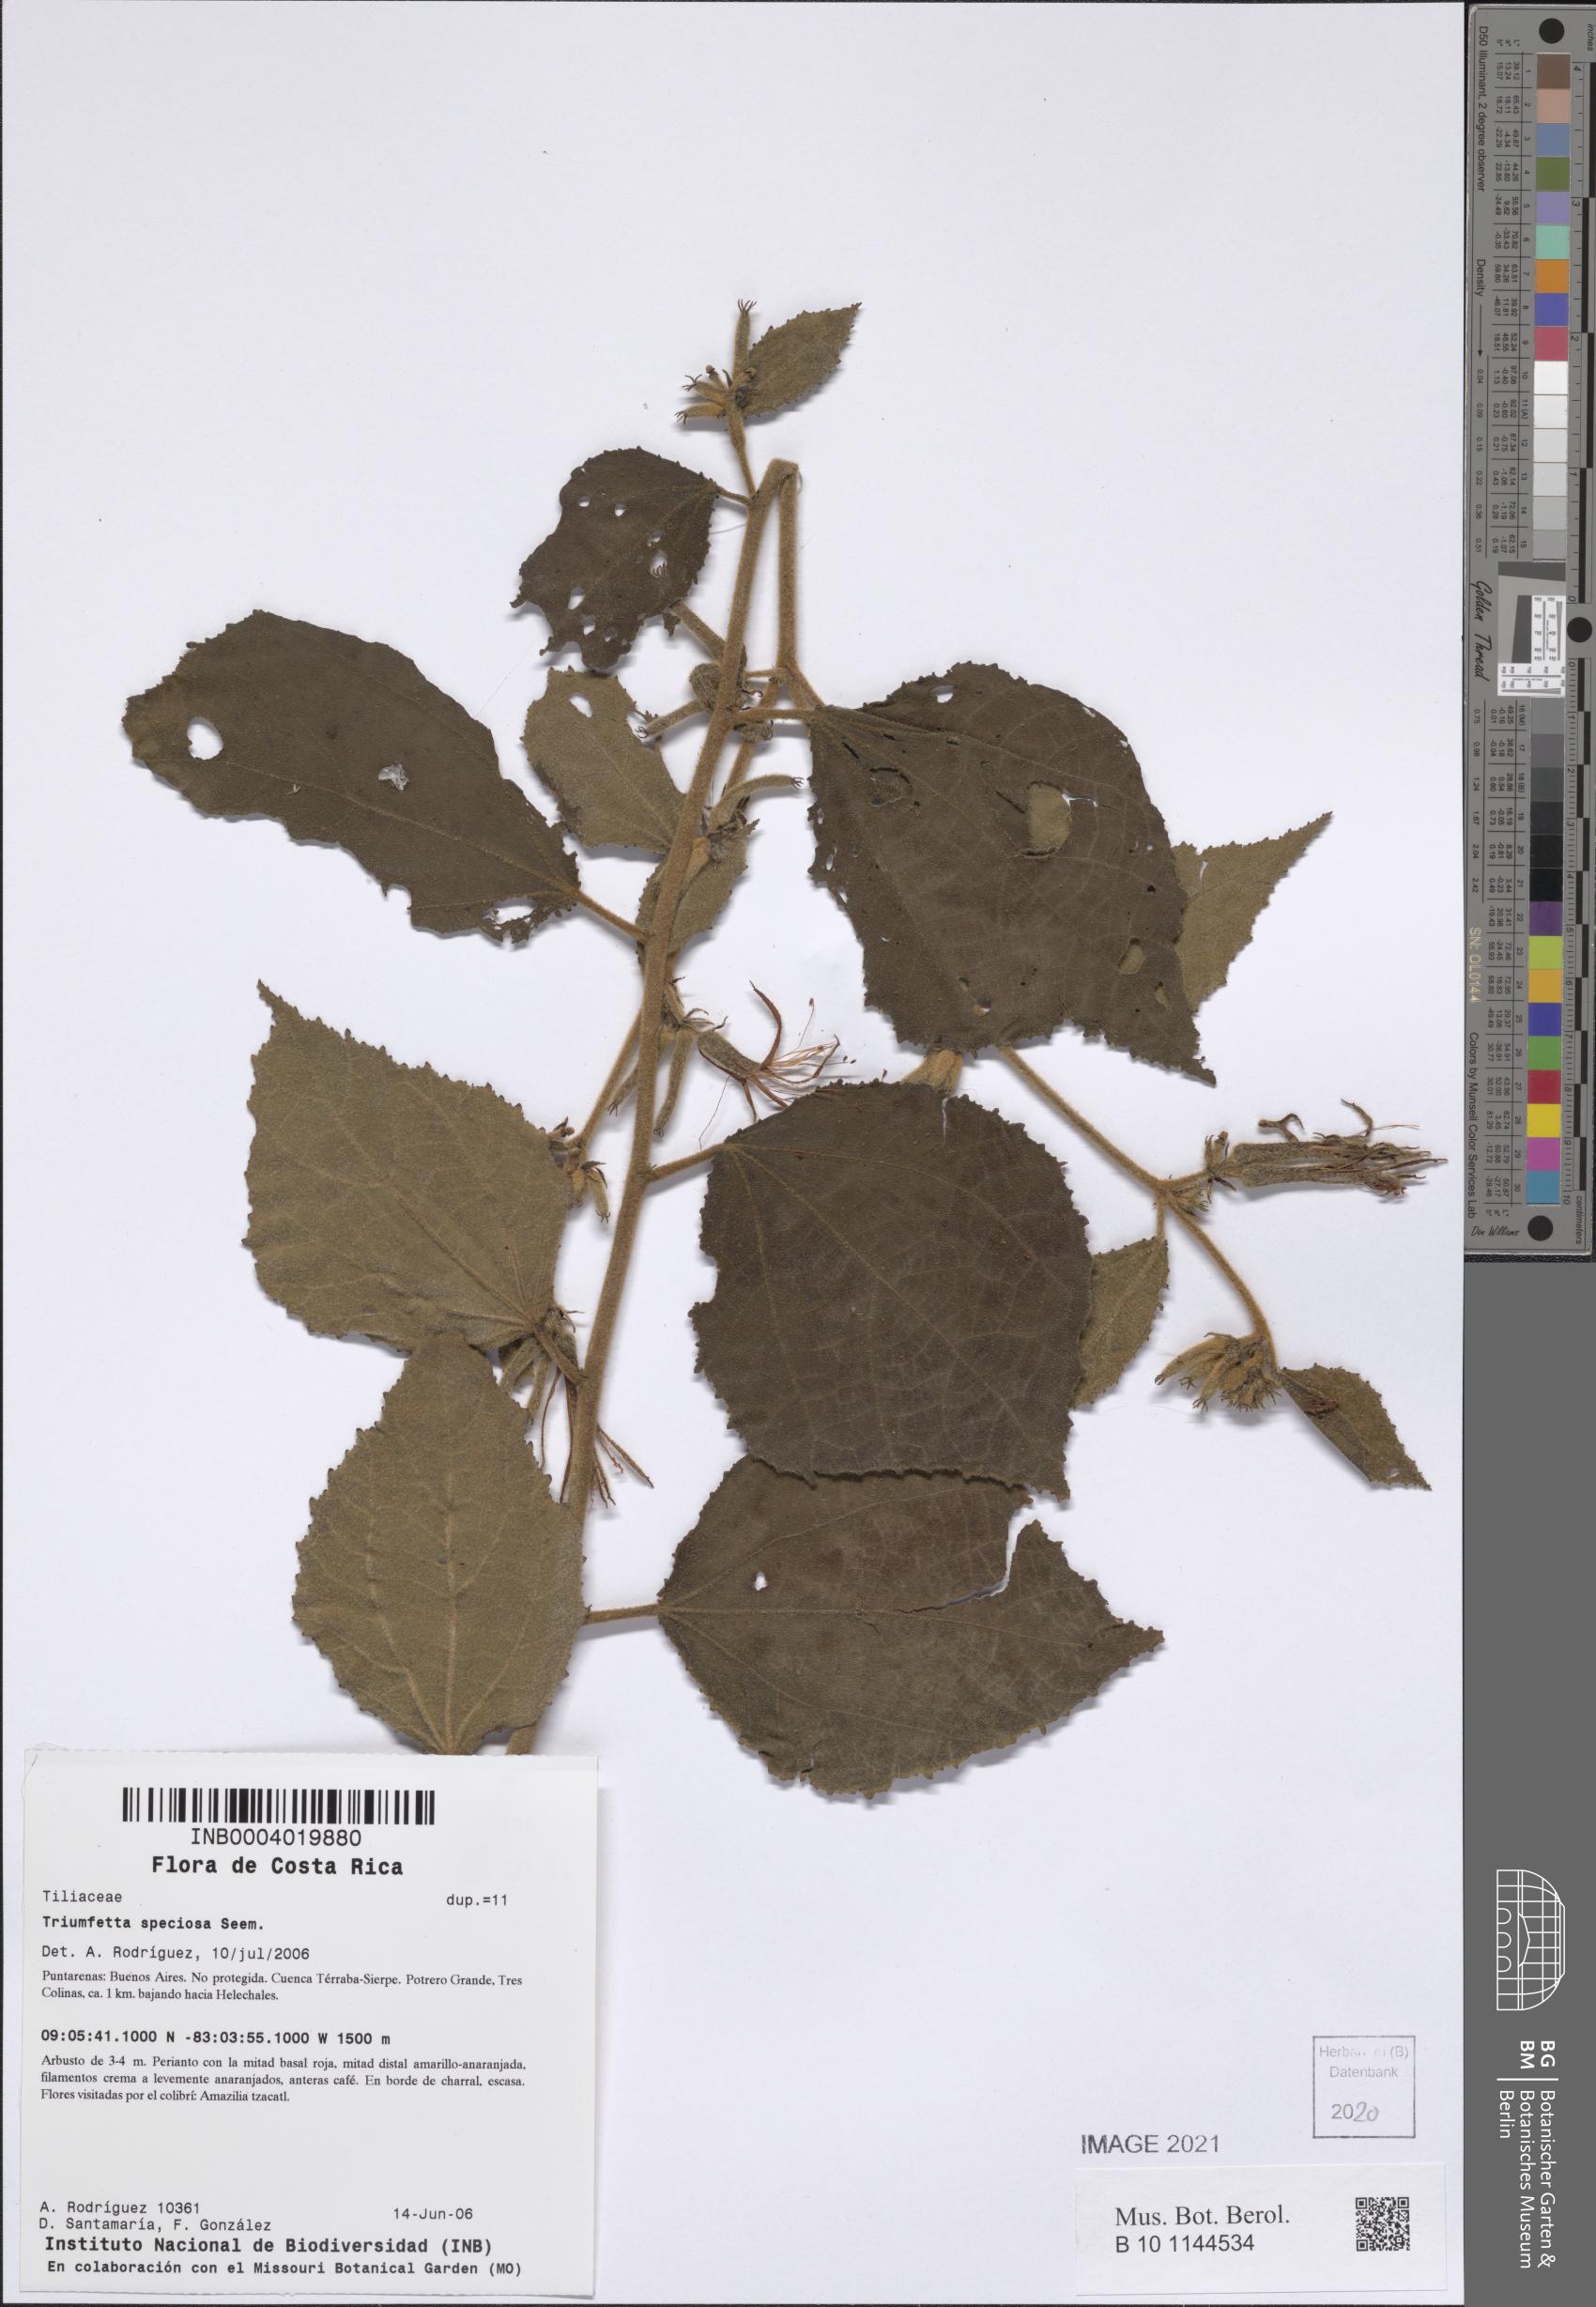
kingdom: Plantae
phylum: Tracheophyta
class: Magnoliopsida
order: Malvales
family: Malvaceae
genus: Triumfetta
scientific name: Triumfetta speciosa
